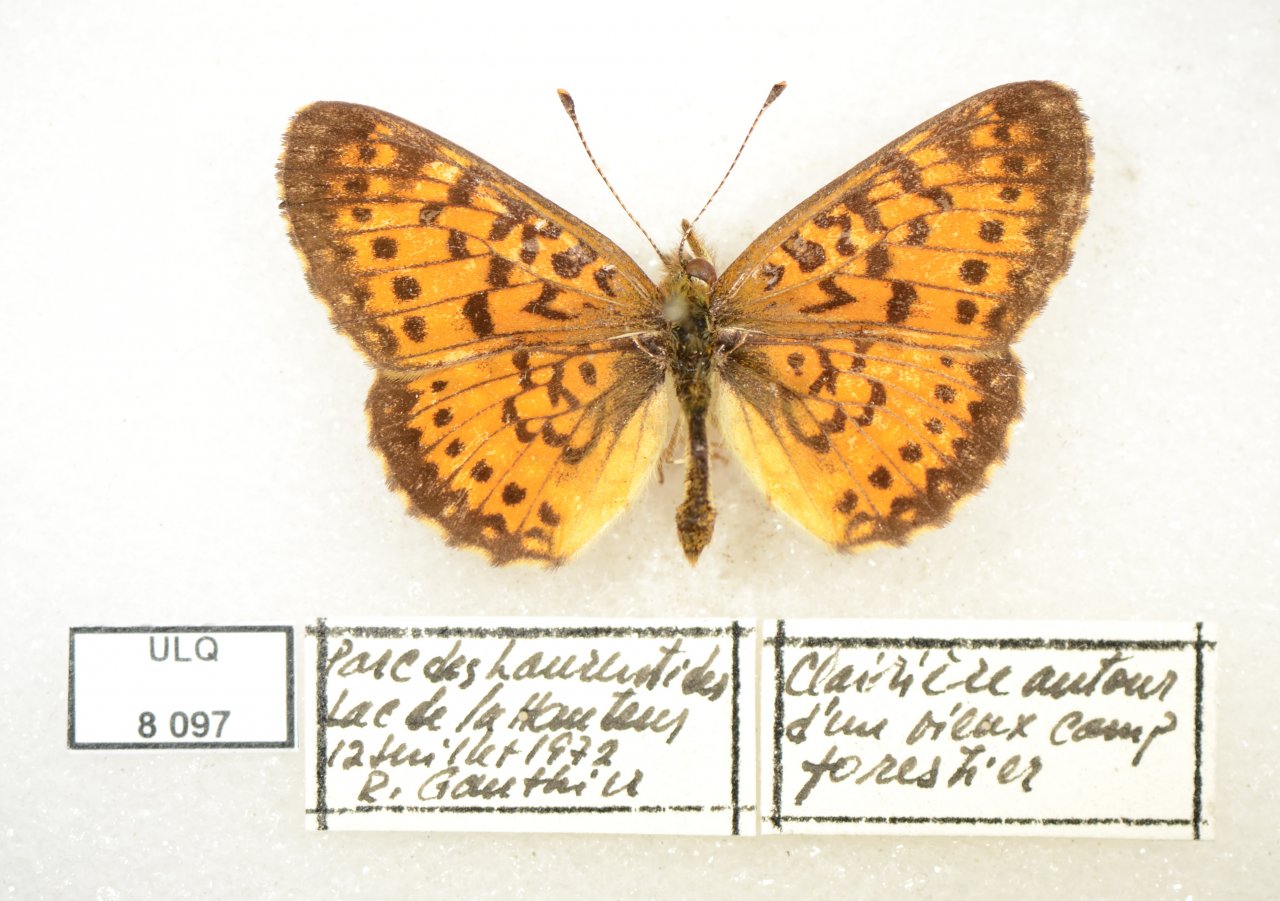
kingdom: Animalia
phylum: Arthropoda
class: Insecta
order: Lepidoptera
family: Nymphalidae
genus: Boloria
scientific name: Boloria selene
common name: Silver-bordered Fritillary
